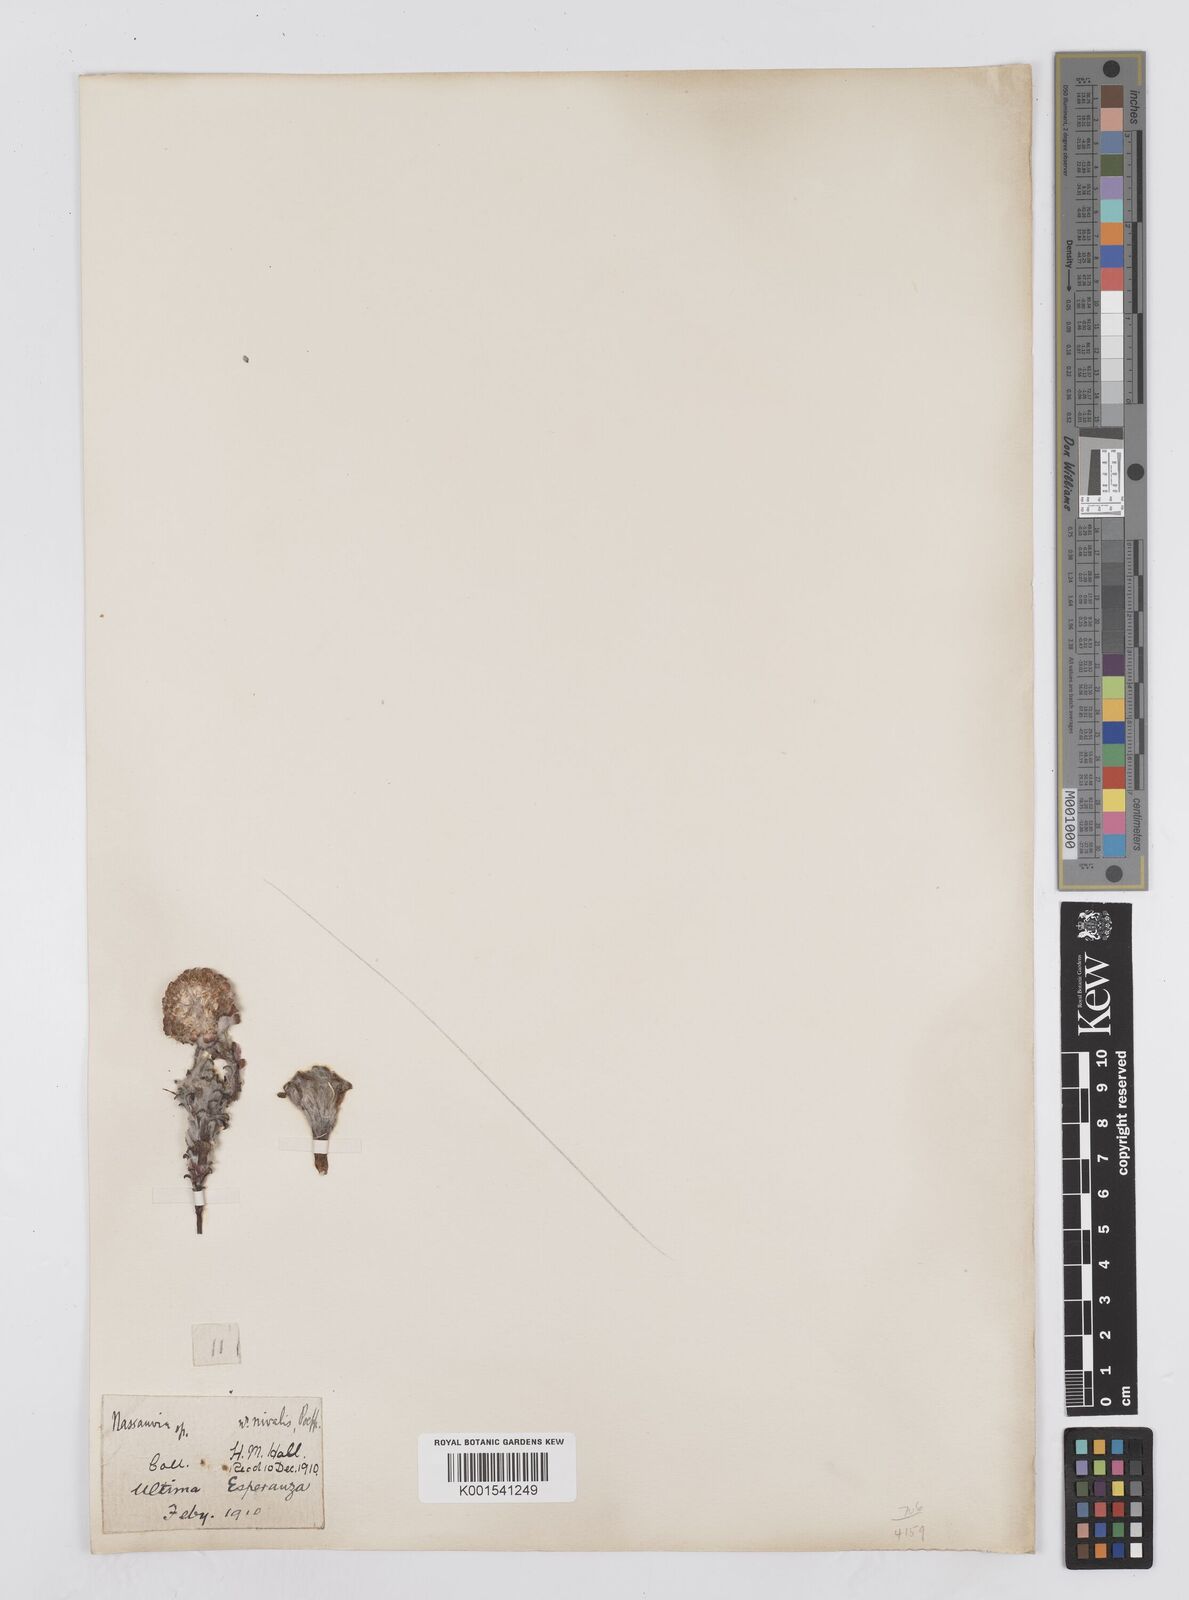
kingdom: Plantae
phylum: Tracheophyta
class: Magnoliopsida
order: Asterales
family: Asteraceae
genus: Nassauvia
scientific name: Nassauvia revoluta
